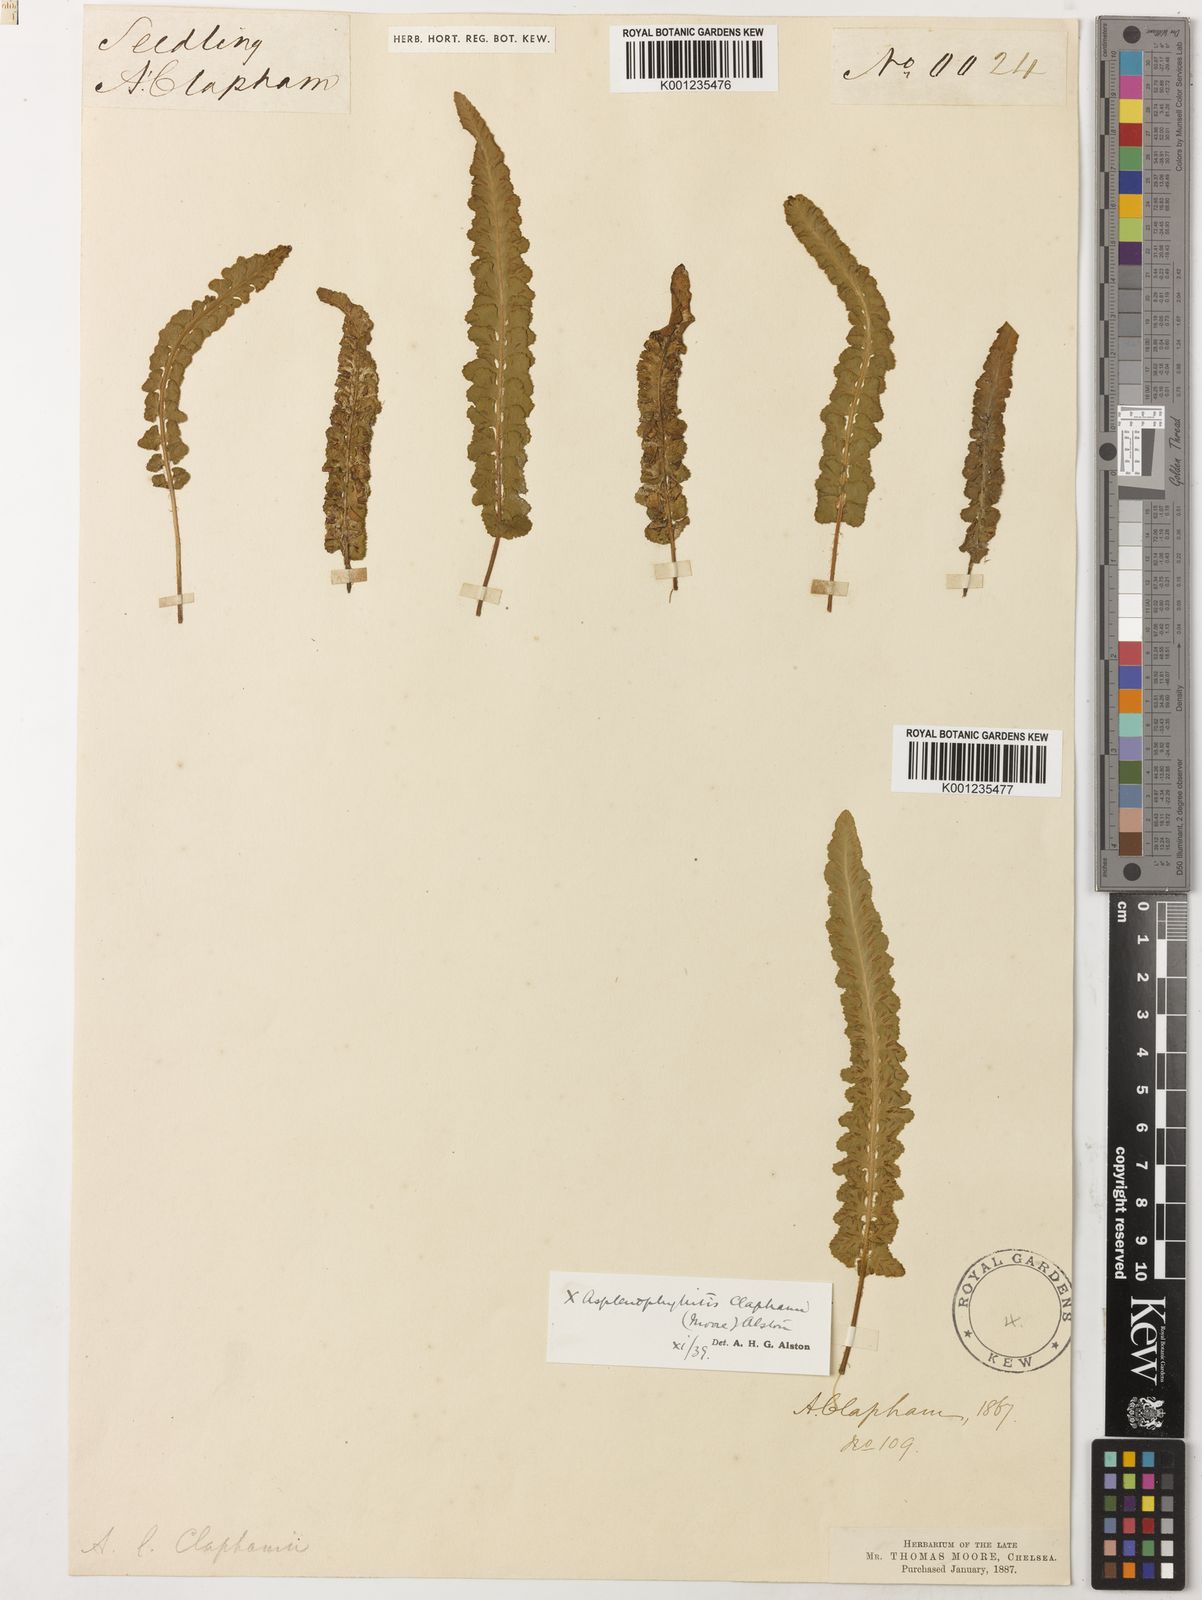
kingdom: Plantae
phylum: Tracheophyta
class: Polypodiopsida
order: Polypodiales
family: Aspleniaceae
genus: Asplenium
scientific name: Asplenium claphamii
